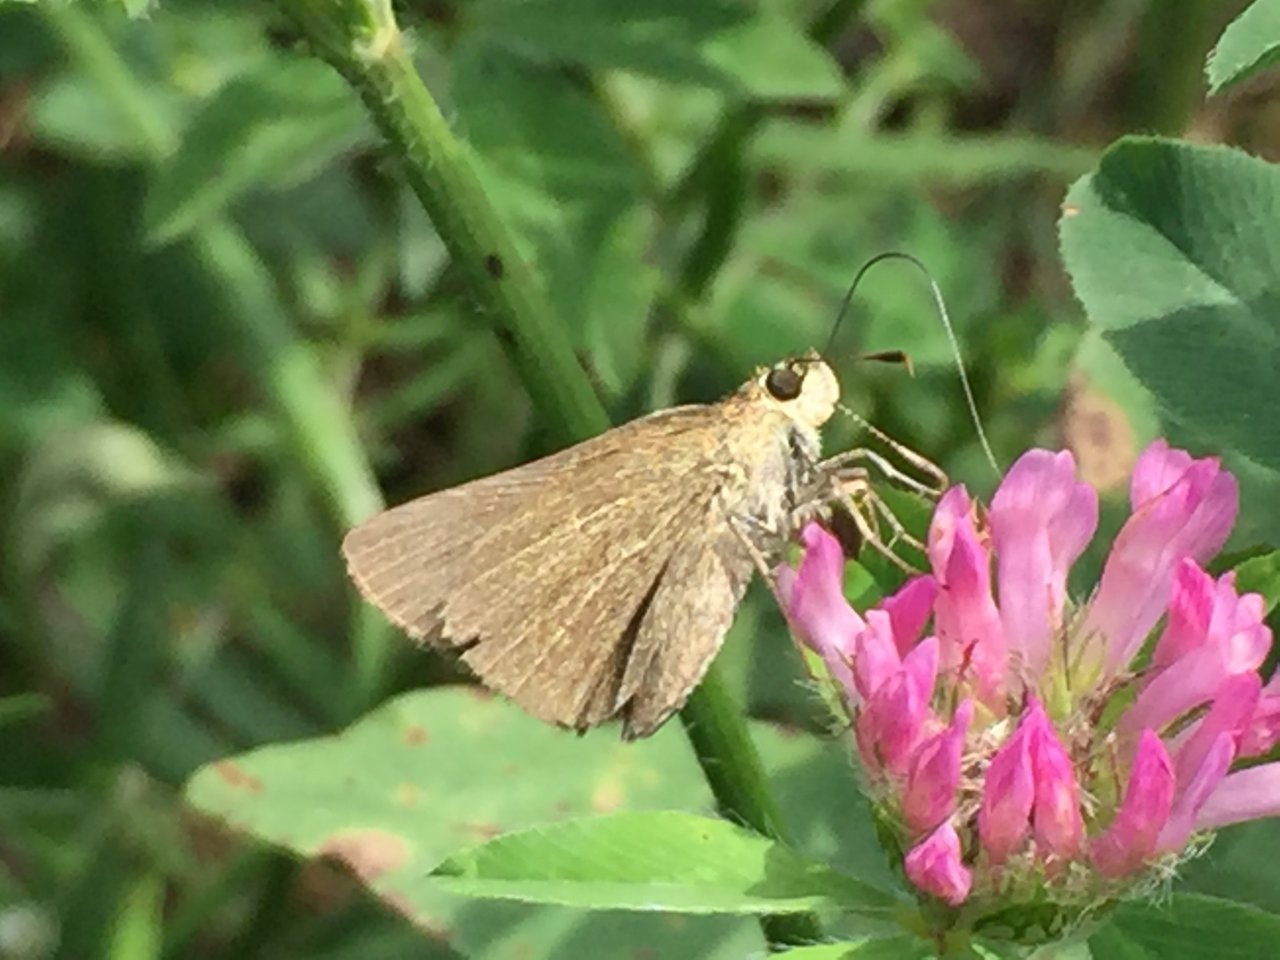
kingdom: Animalia
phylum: Arthropoda
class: Insecta
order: Lepidoptera
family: Hesperiidae
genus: Nastra
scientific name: Nastra lherminier
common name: Swarthy Skipper
